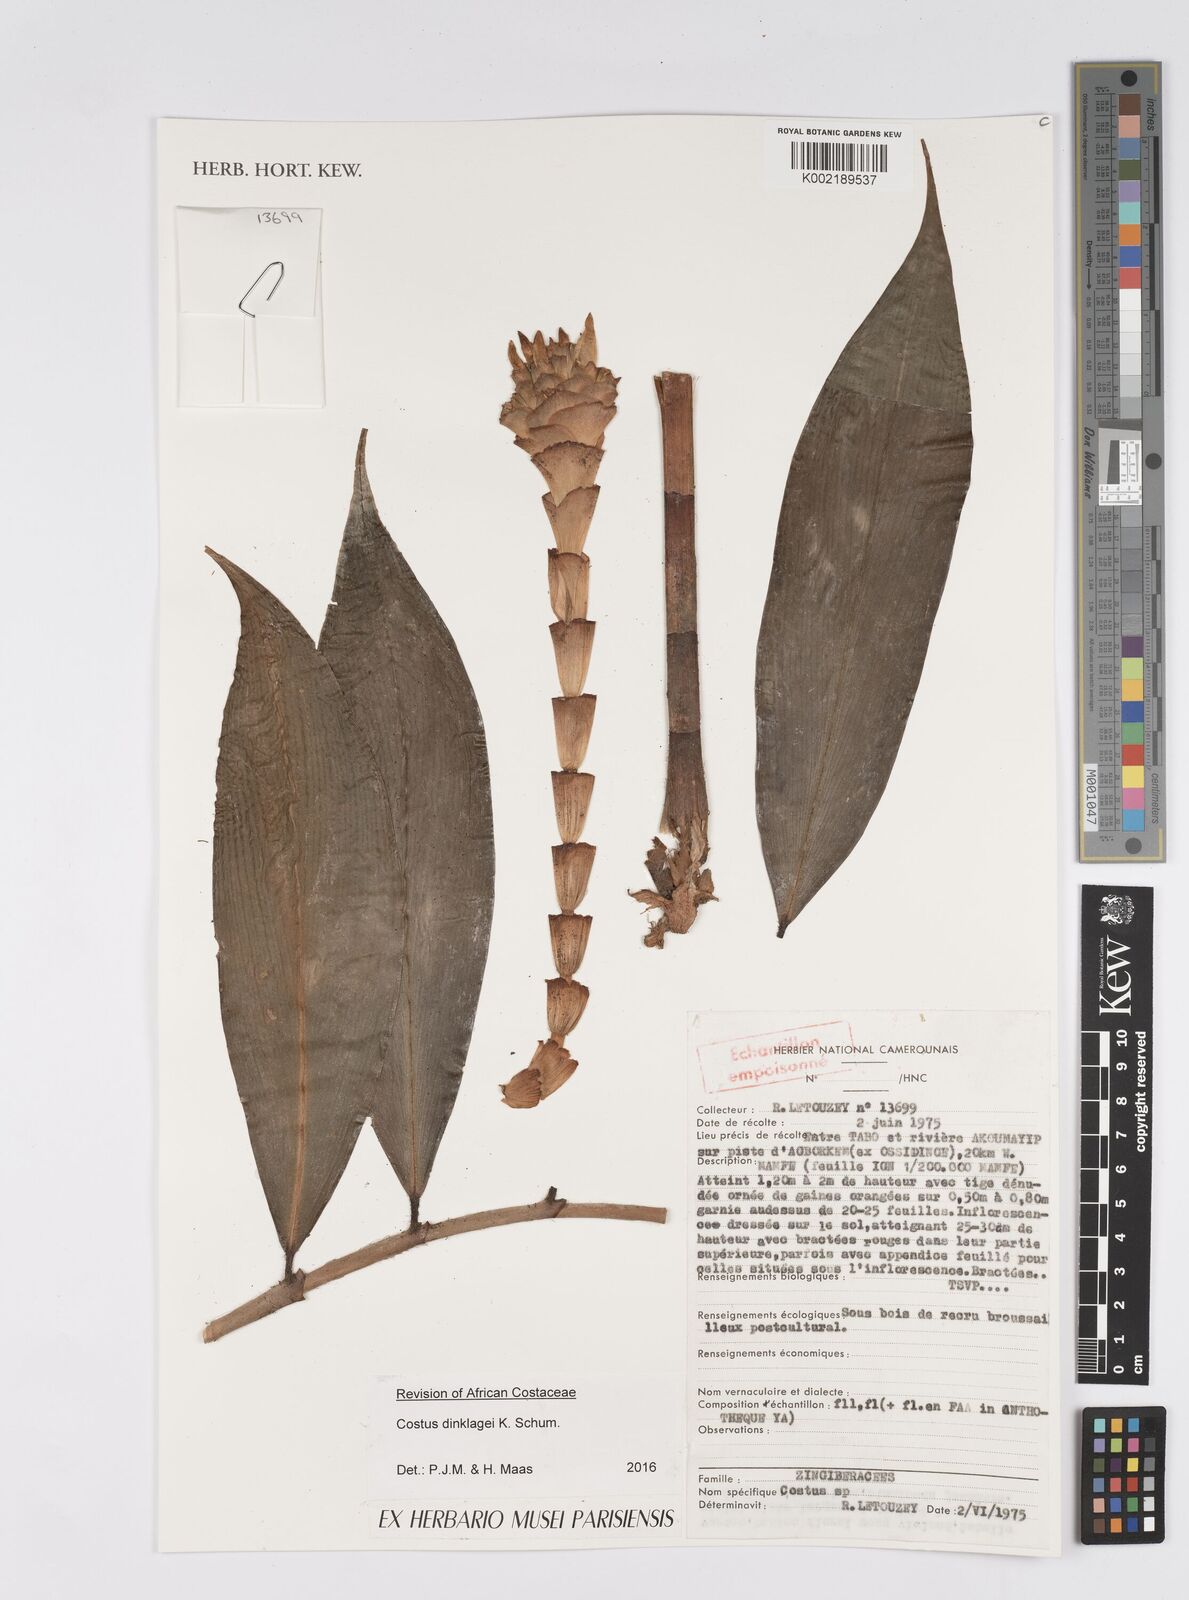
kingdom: Plantae
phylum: Tracheophyta
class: Liliopsida
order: Zingiberales
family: Costaceae
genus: Costus
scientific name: Costus dinklagei
